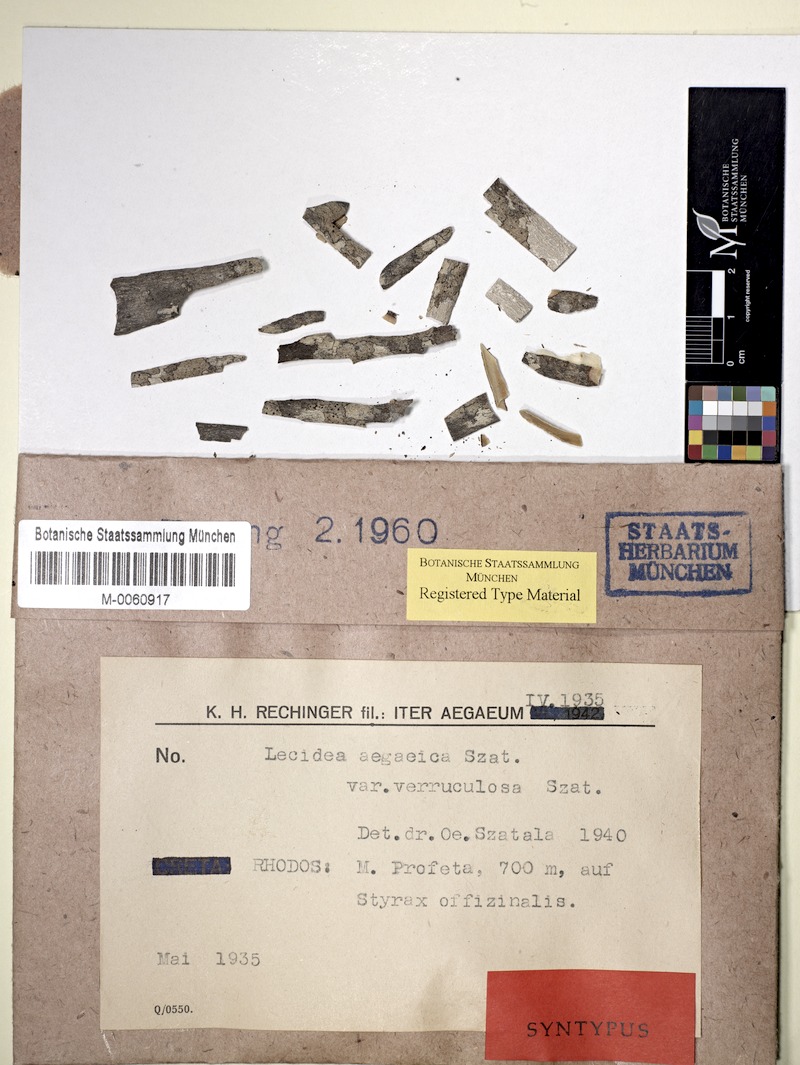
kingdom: Fungi
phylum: Ascomycota
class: Lecanoromycetes
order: Lecideales
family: Lecideaceae
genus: Lecidea
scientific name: Lecidea
